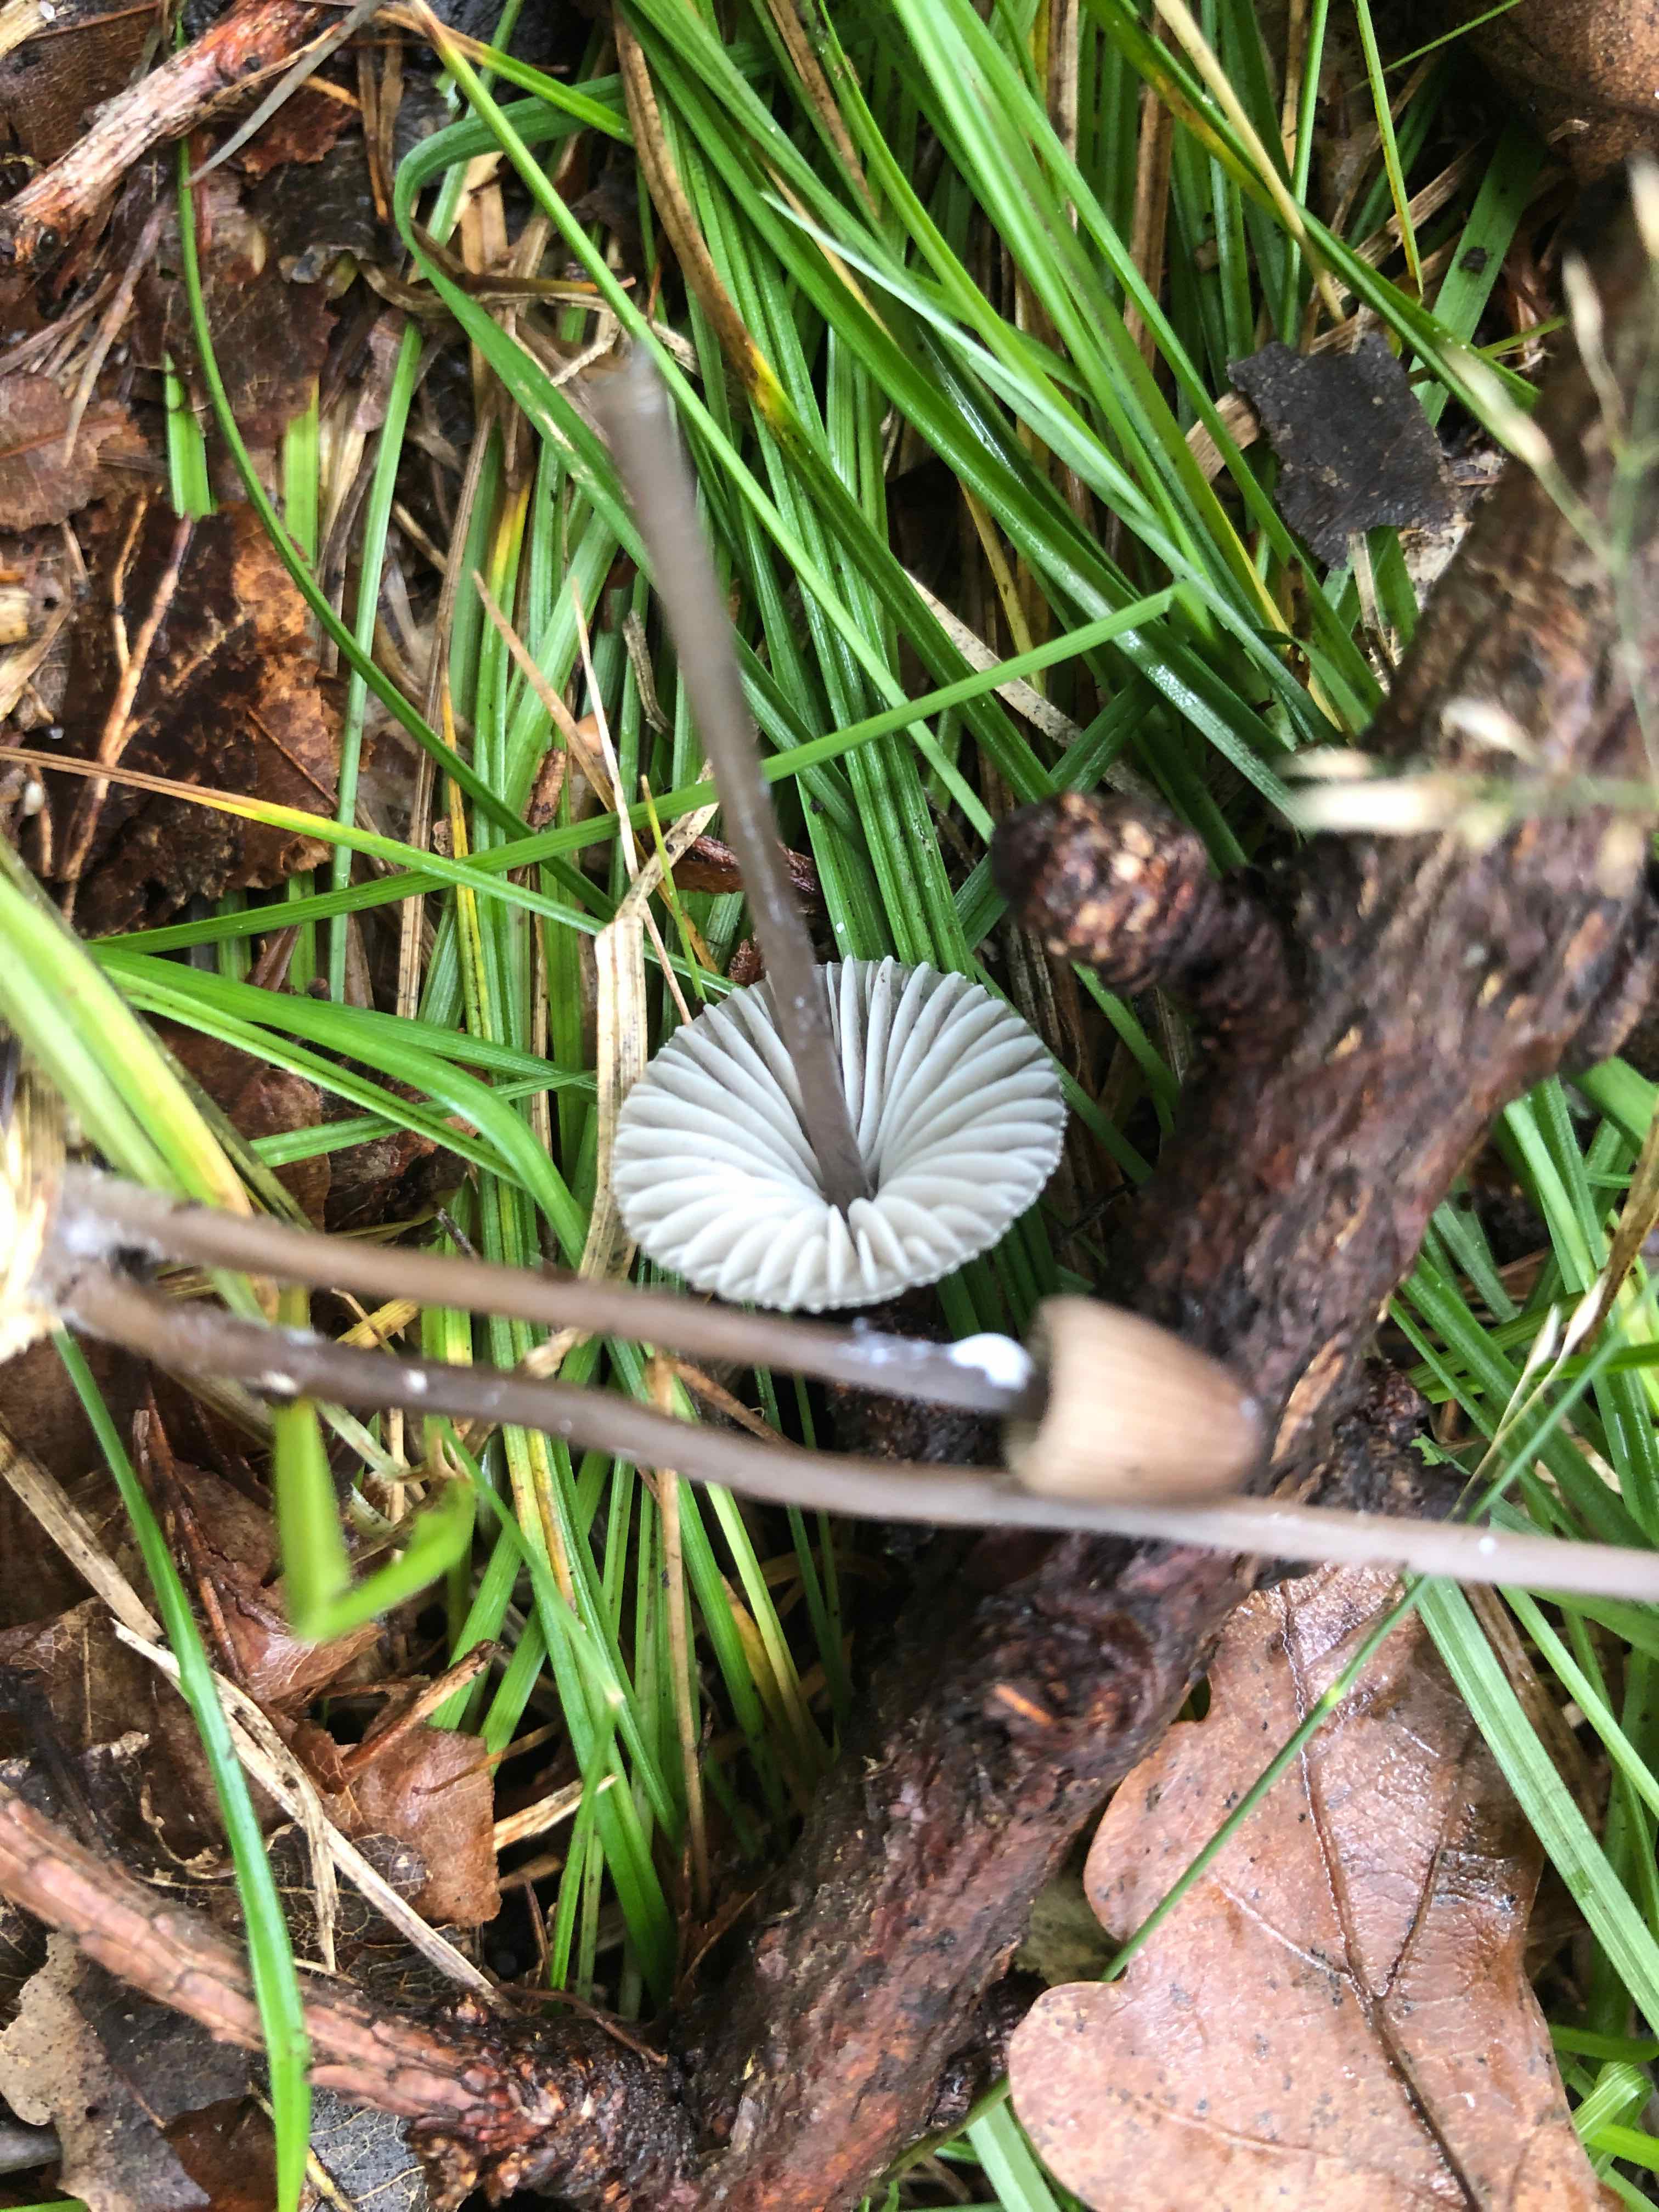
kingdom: Fungi
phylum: Basidiomycota
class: Agaricomycetes
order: Agaricales
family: Mycenaceae
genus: Mycena
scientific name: Mycena galopus
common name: hvidmælket huesvamp
